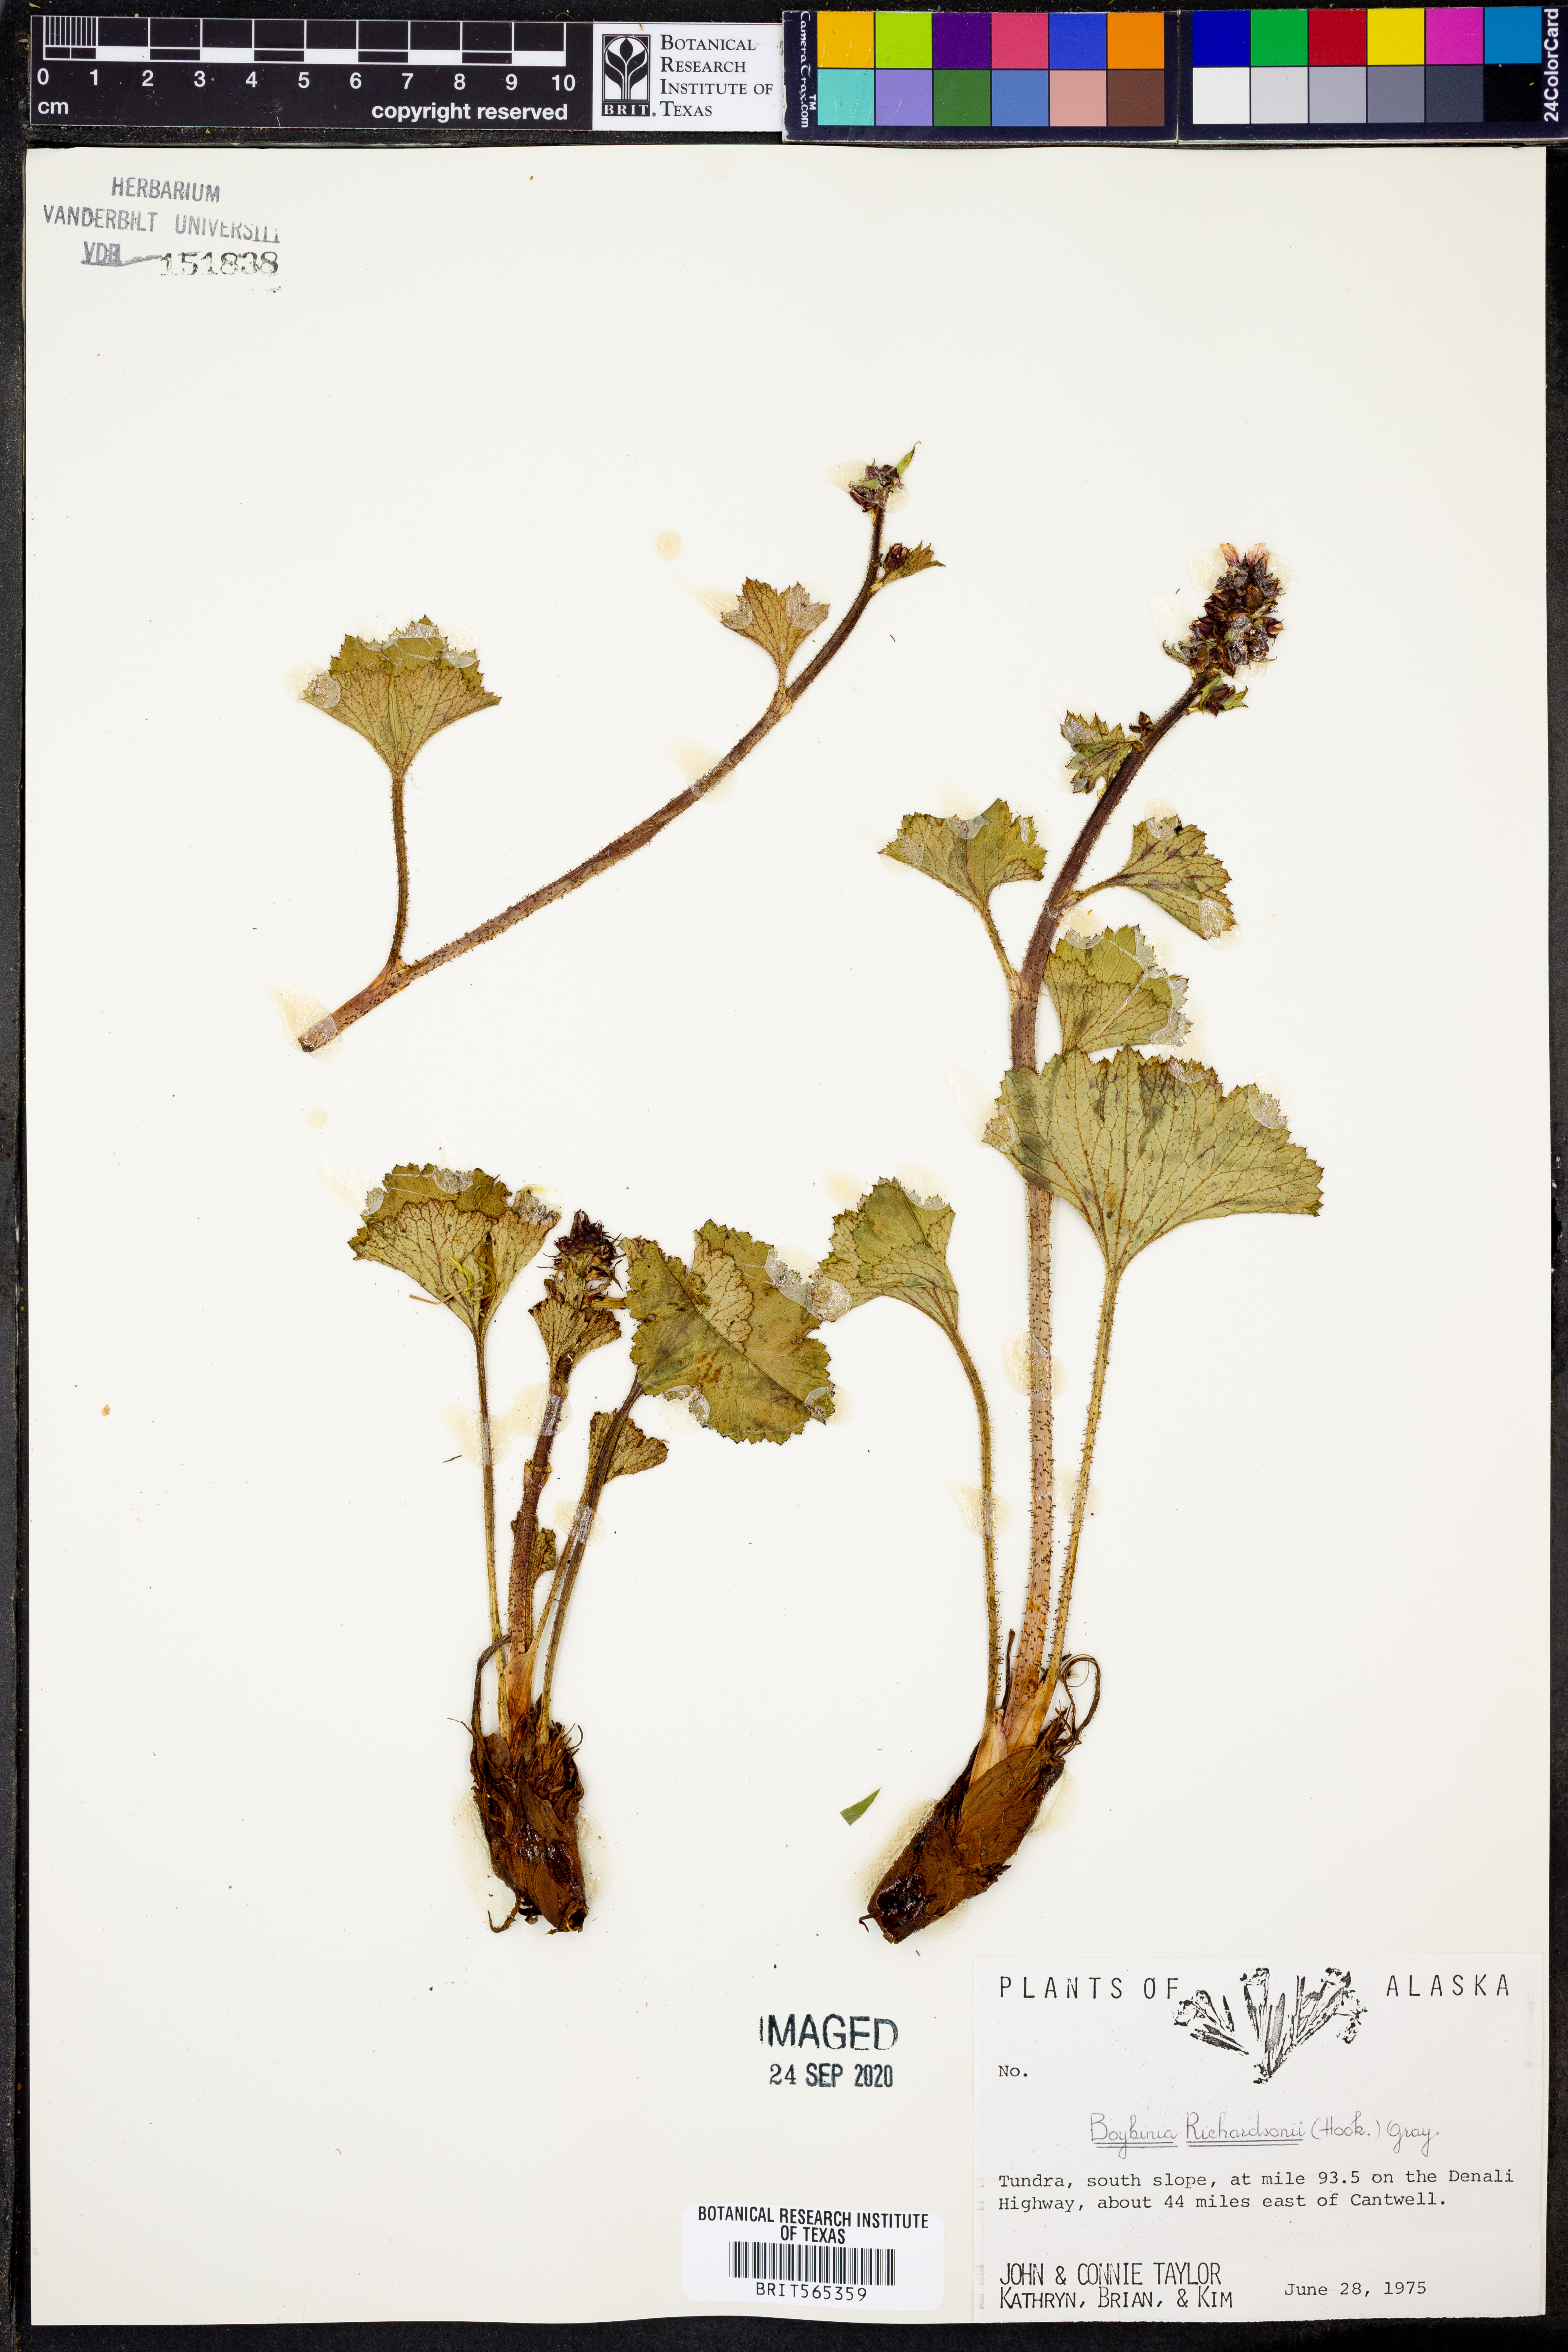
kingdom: Plantae
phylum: Tracheophyta
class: Magnoliopsida
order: Saxifragales
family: Saxifragaceae
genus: Boykinia
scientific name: Boykinia richardsonii
